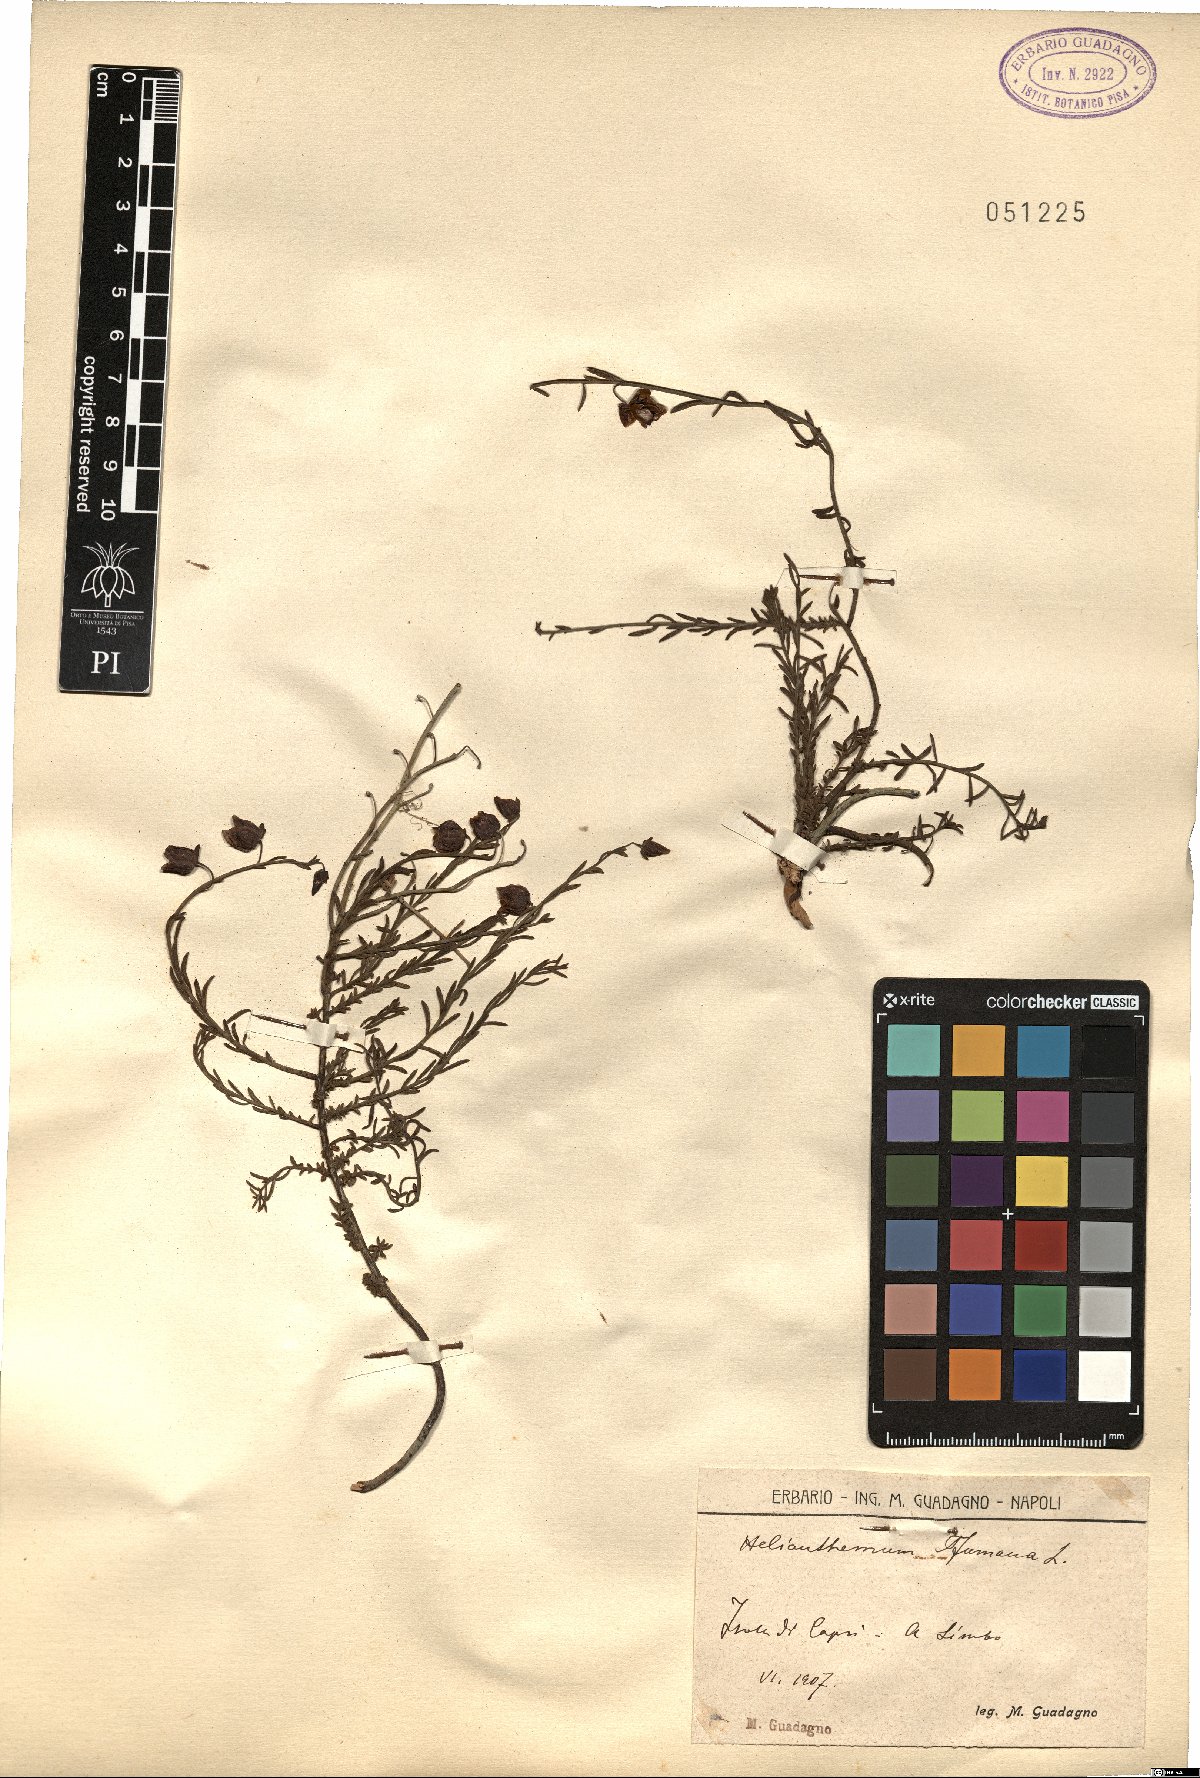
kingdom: Plantae
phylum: Tracheophyta
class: Magnoliopsida
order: Malvales
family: Cistaceae
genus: Fumana
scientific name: Fumana procumbens
